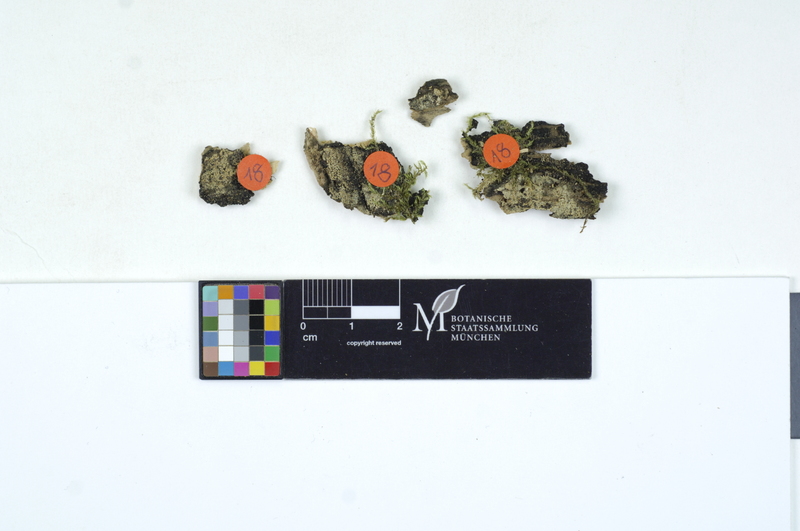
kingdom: Fungi
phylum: Basidiomycota
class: Agaricomycetes
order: Cantharellales
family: Ceratobasidiaceae
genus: Rhizoctonia
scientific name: Rhizoctonia fusispora
